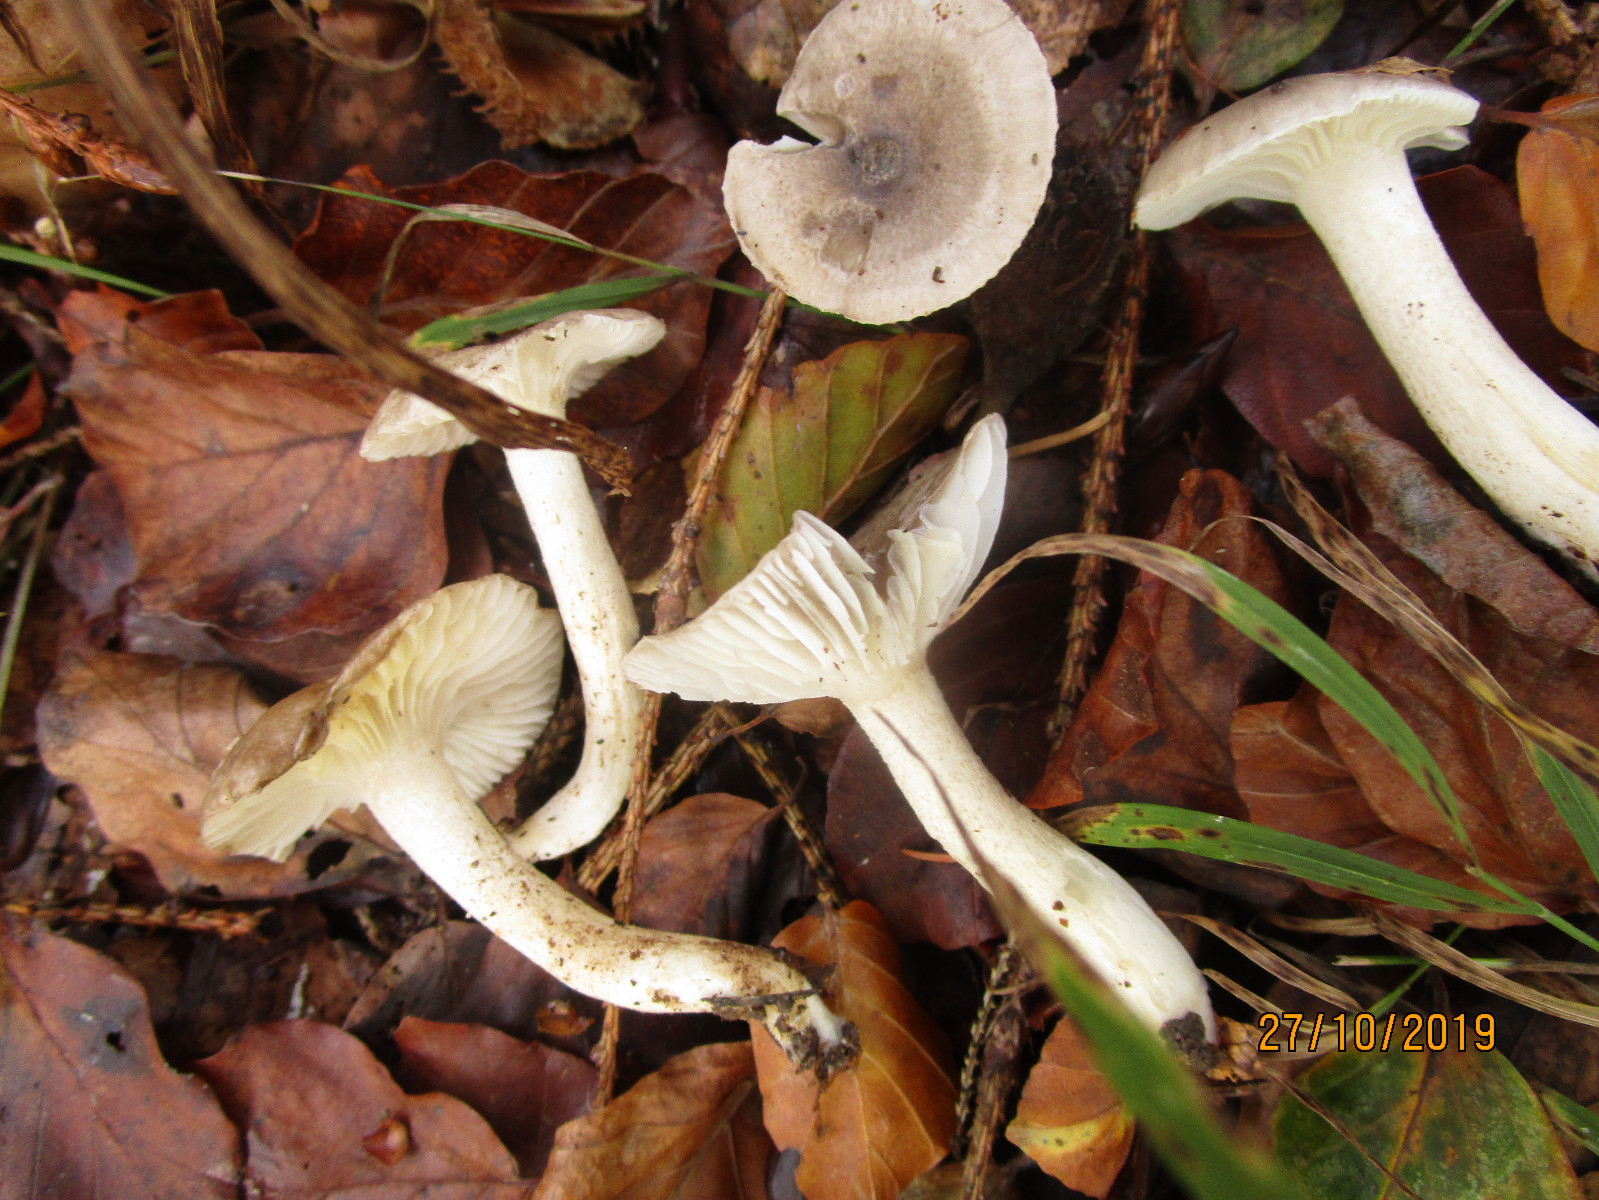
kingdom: Fungi
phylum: Basidiomycota
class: Agaricomycetes
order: Agaricales
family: Hygrophoraceae
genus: Hygrophorus
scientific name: Hygrophorus pustulatus
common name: mørkprikket sneglehat
